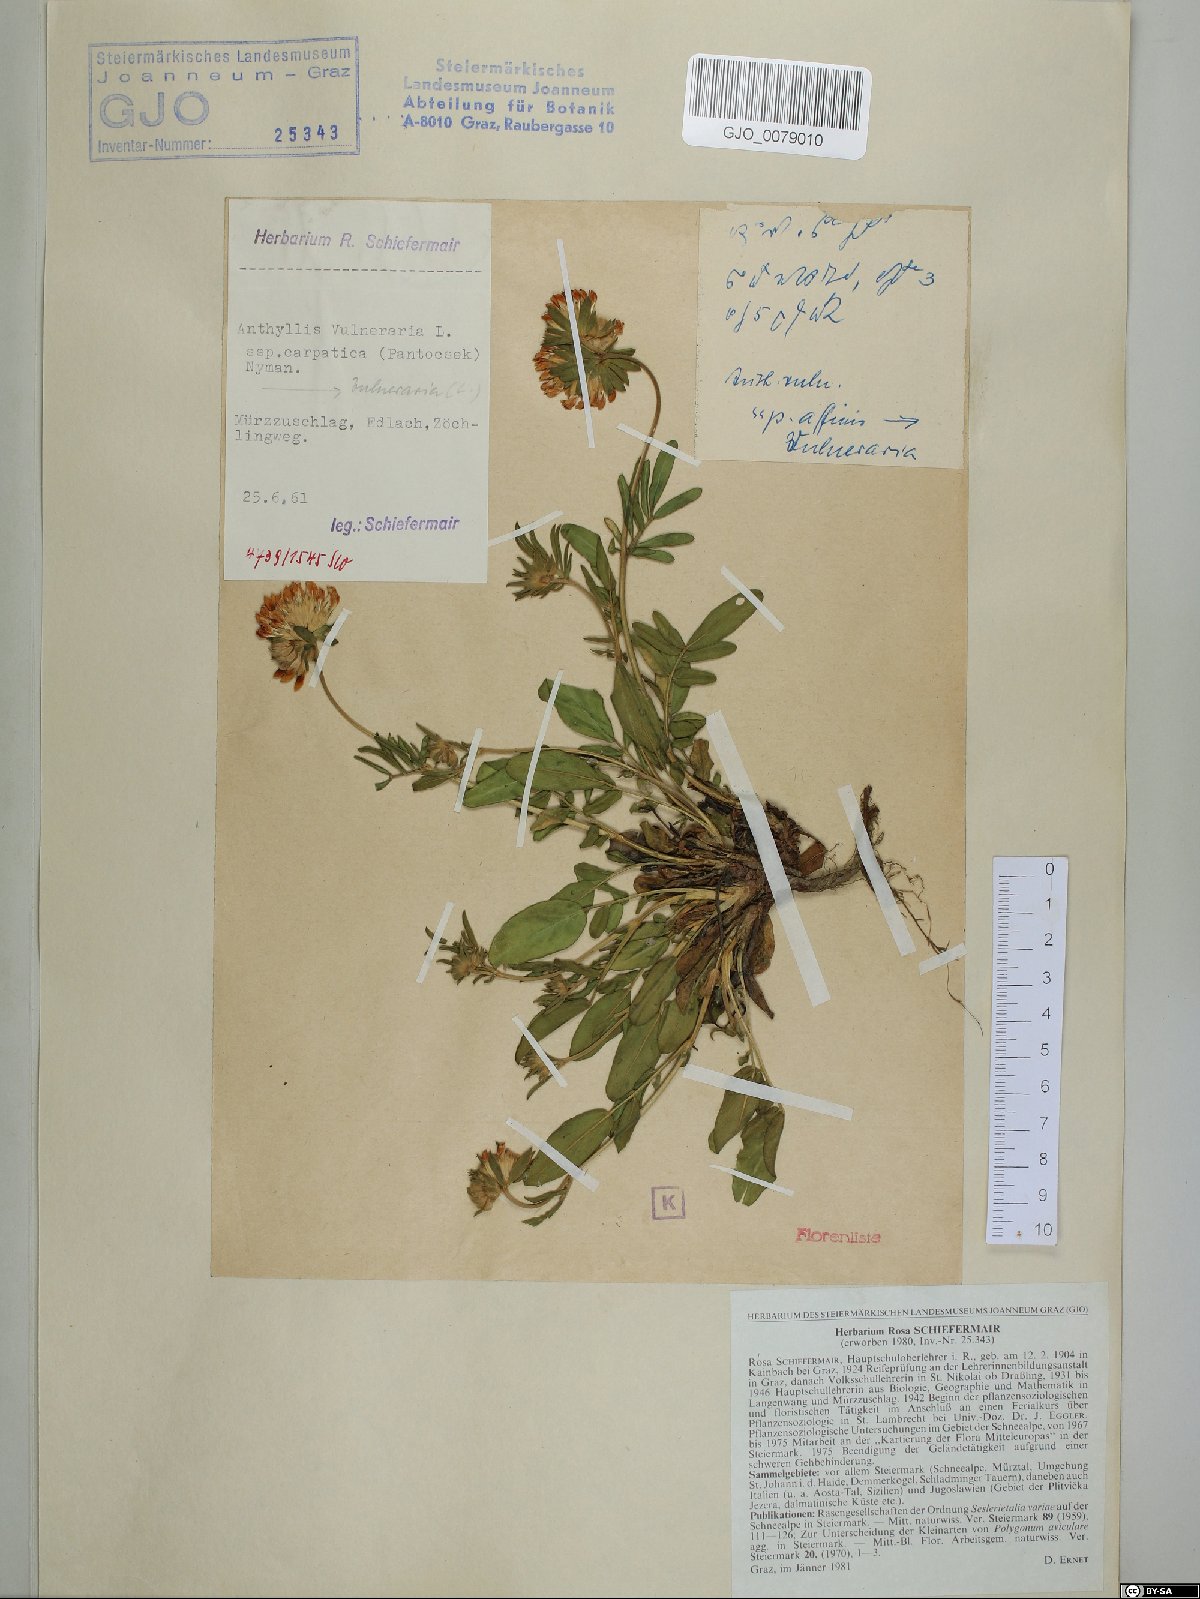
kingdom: Plantae
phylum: Tracheophyta
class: Magnoliopsida
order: Fabales
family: Fabaceae
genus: Anthyllis
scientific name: Anthyllis vulneraria
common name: Kidney vetch
